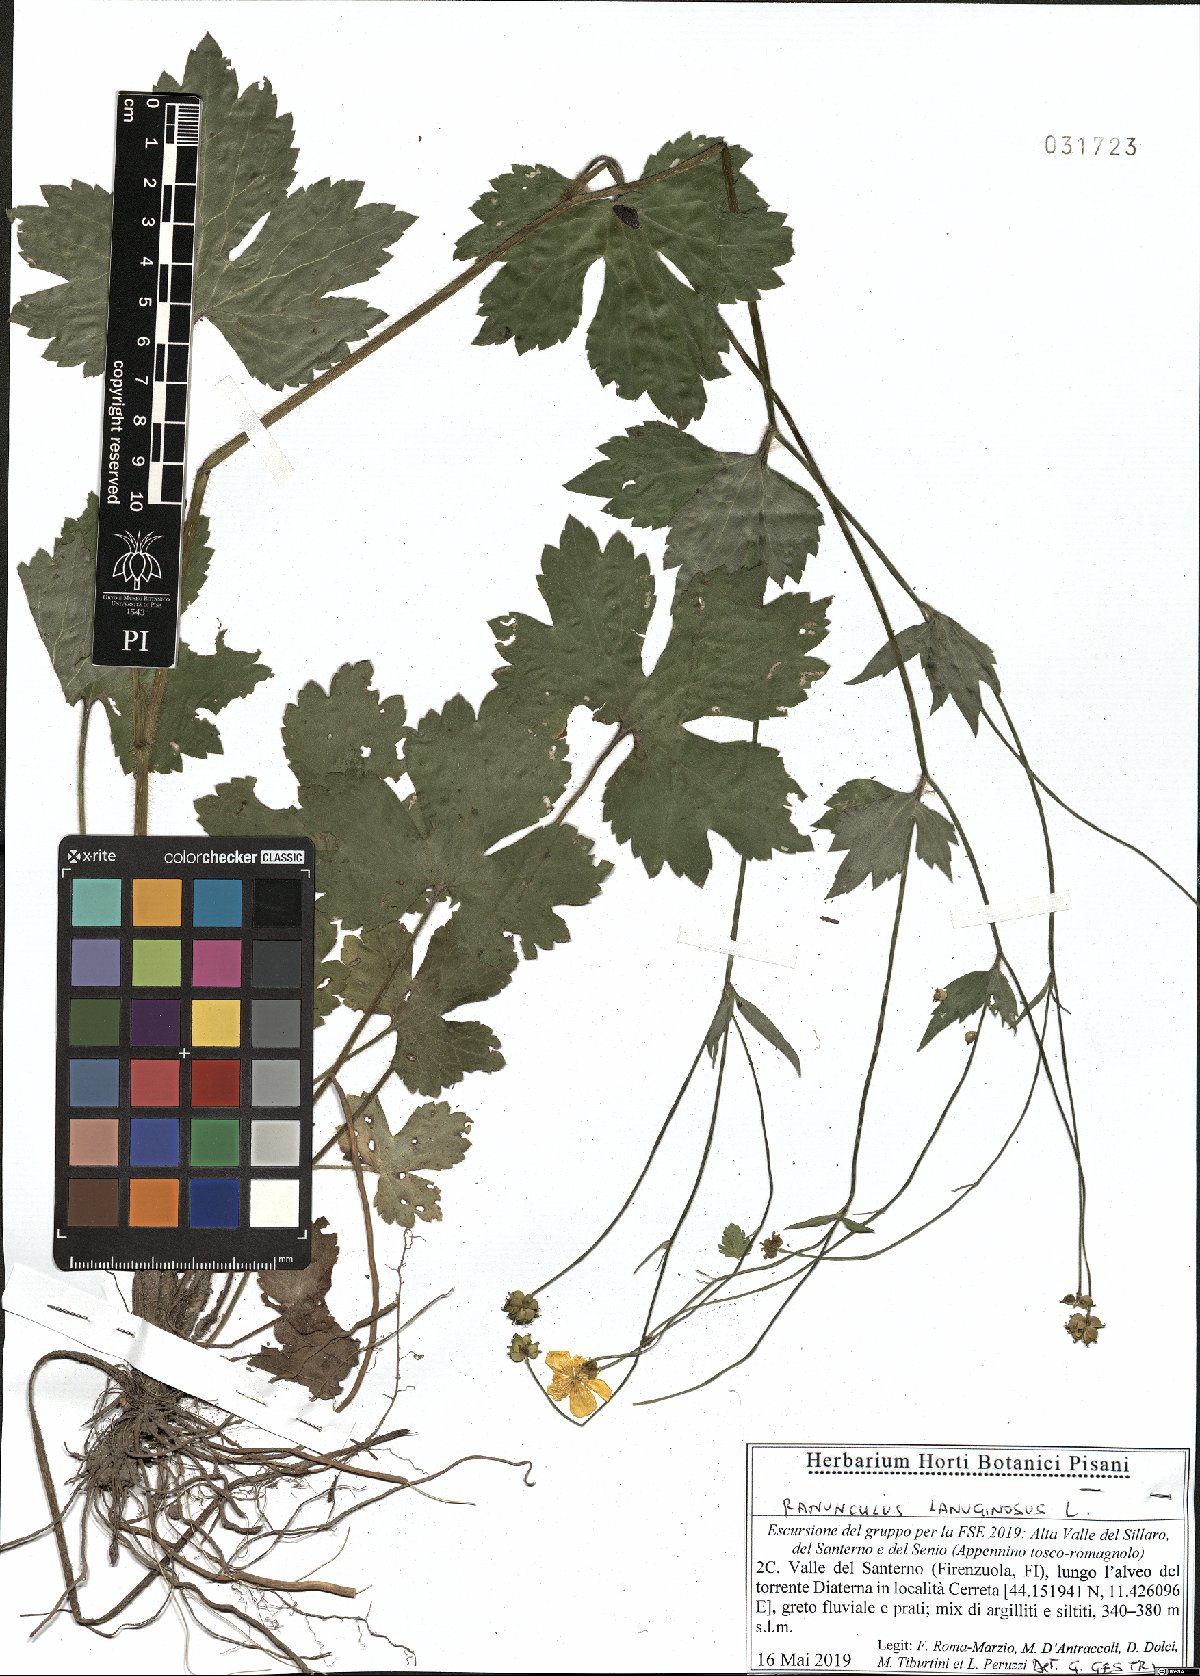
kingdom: Plantae
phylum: Tracheophyta
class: Magnoliopsida
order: Ranunculales
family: Ranunculaceae
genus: Ranunculus
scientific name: Ranunculus lanuginosus
